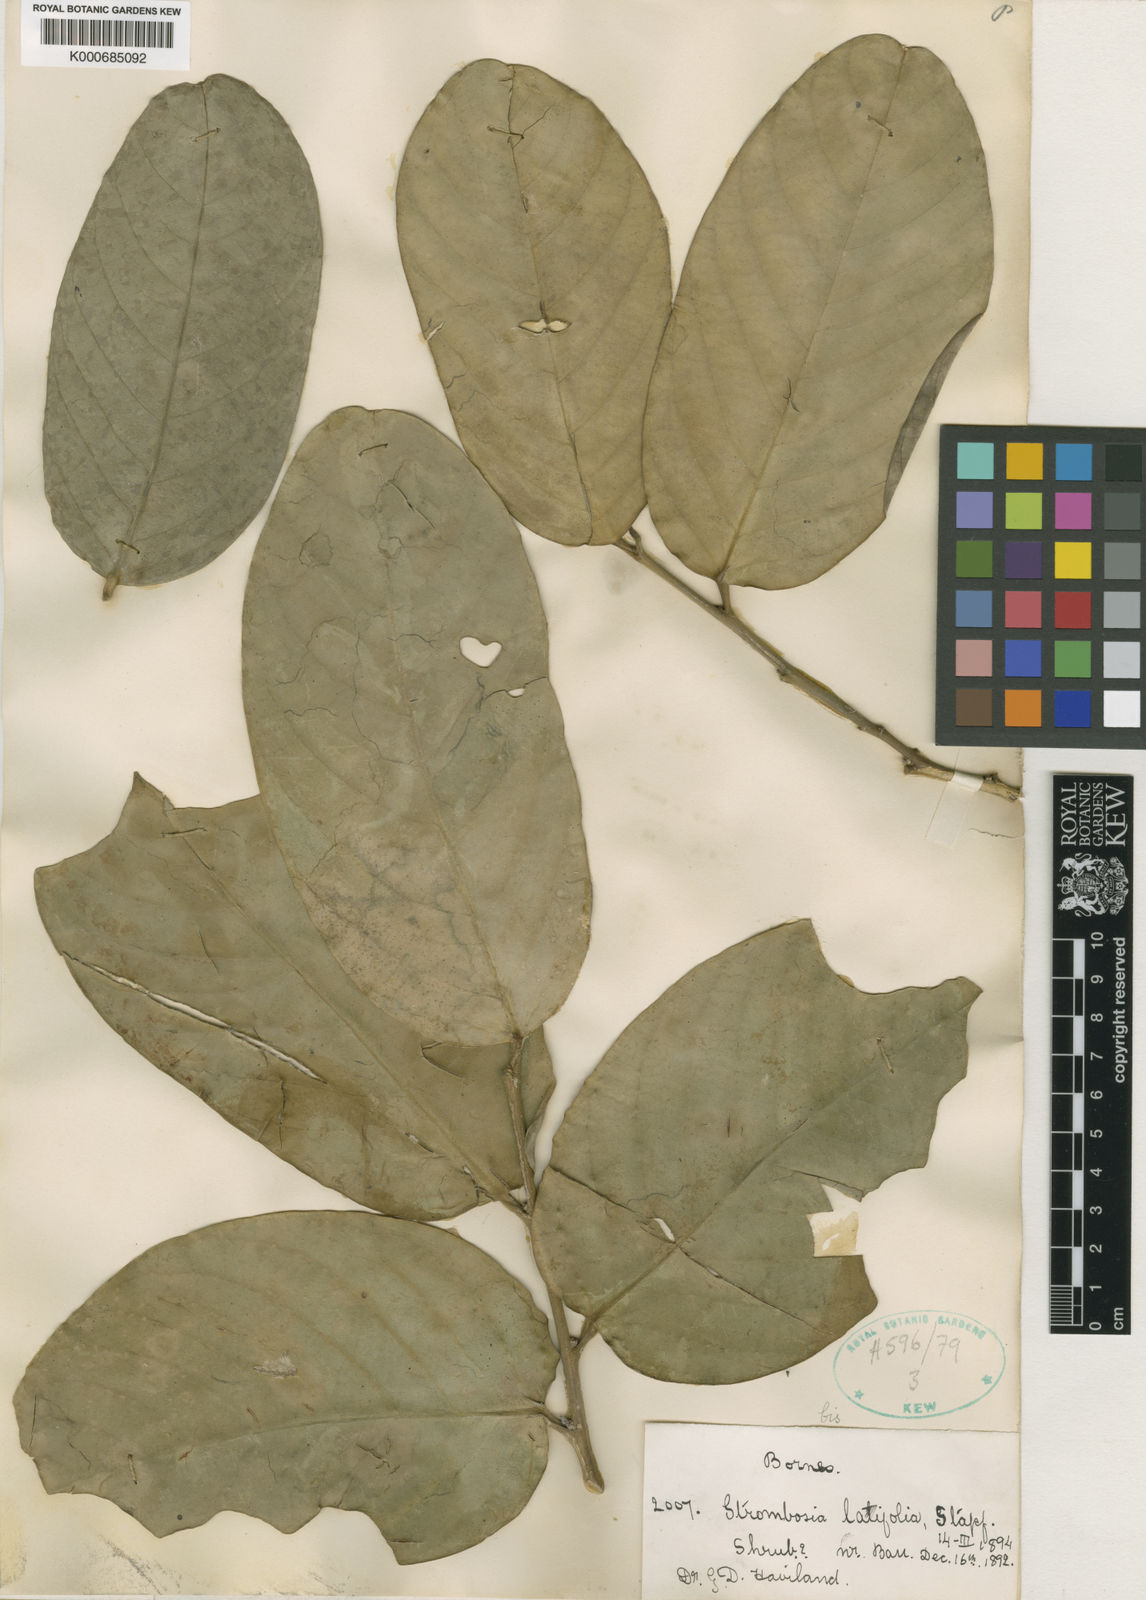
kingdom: Plantae
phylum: Tracheophyta
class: Magnoliopsida
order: Santalales
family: Strombosiaceae
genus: Strombosia
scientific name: Strombosia ceylanica
